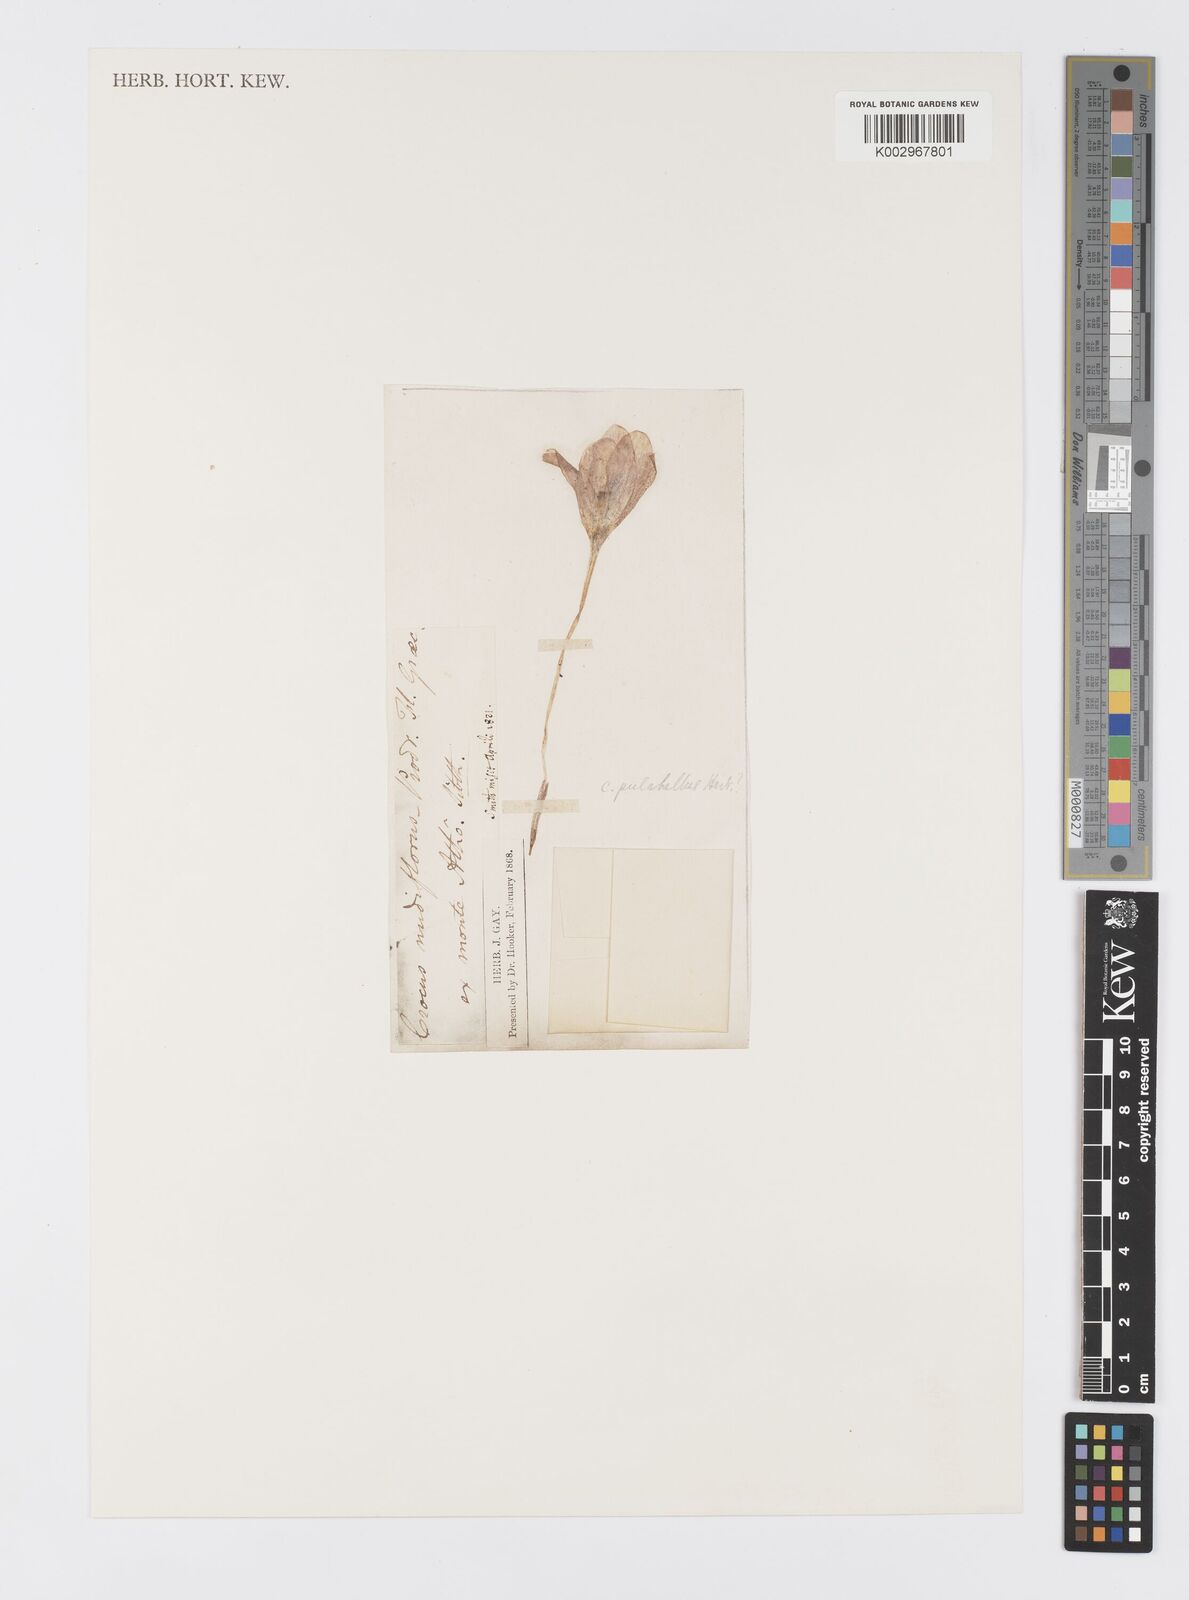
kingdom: Plantae
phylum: Tracheophyta
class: Liliopsida
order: Asparagales
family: Iridaceae
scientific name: Iridaceae
